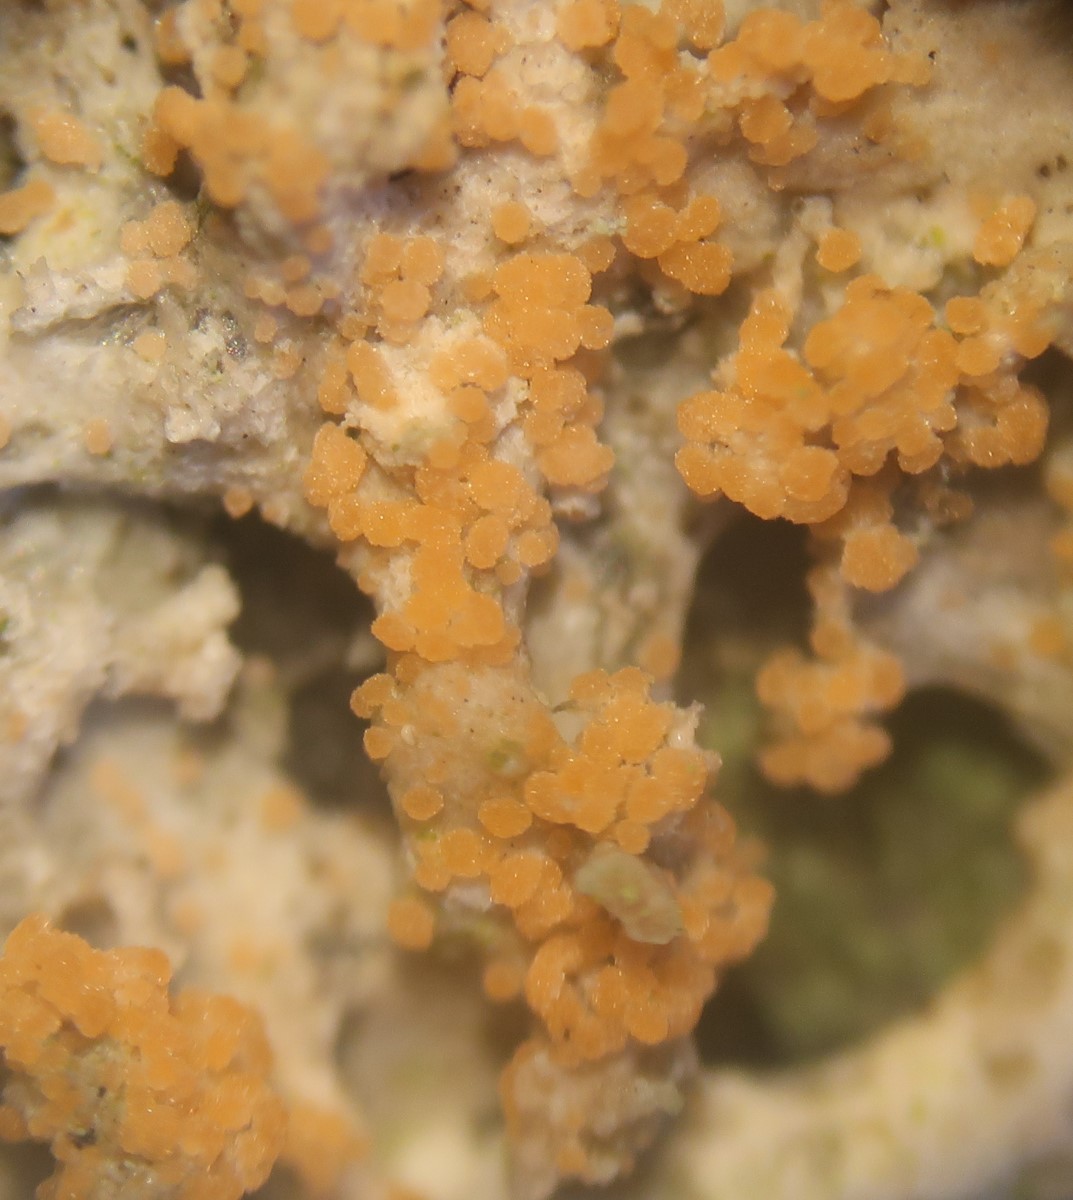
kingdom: Fungi
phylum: Basidiomycota
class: Agaricomycetes
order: Corticiales
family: Corticiaceae
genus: Erythricium
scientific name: Erythricium aurantiacum
